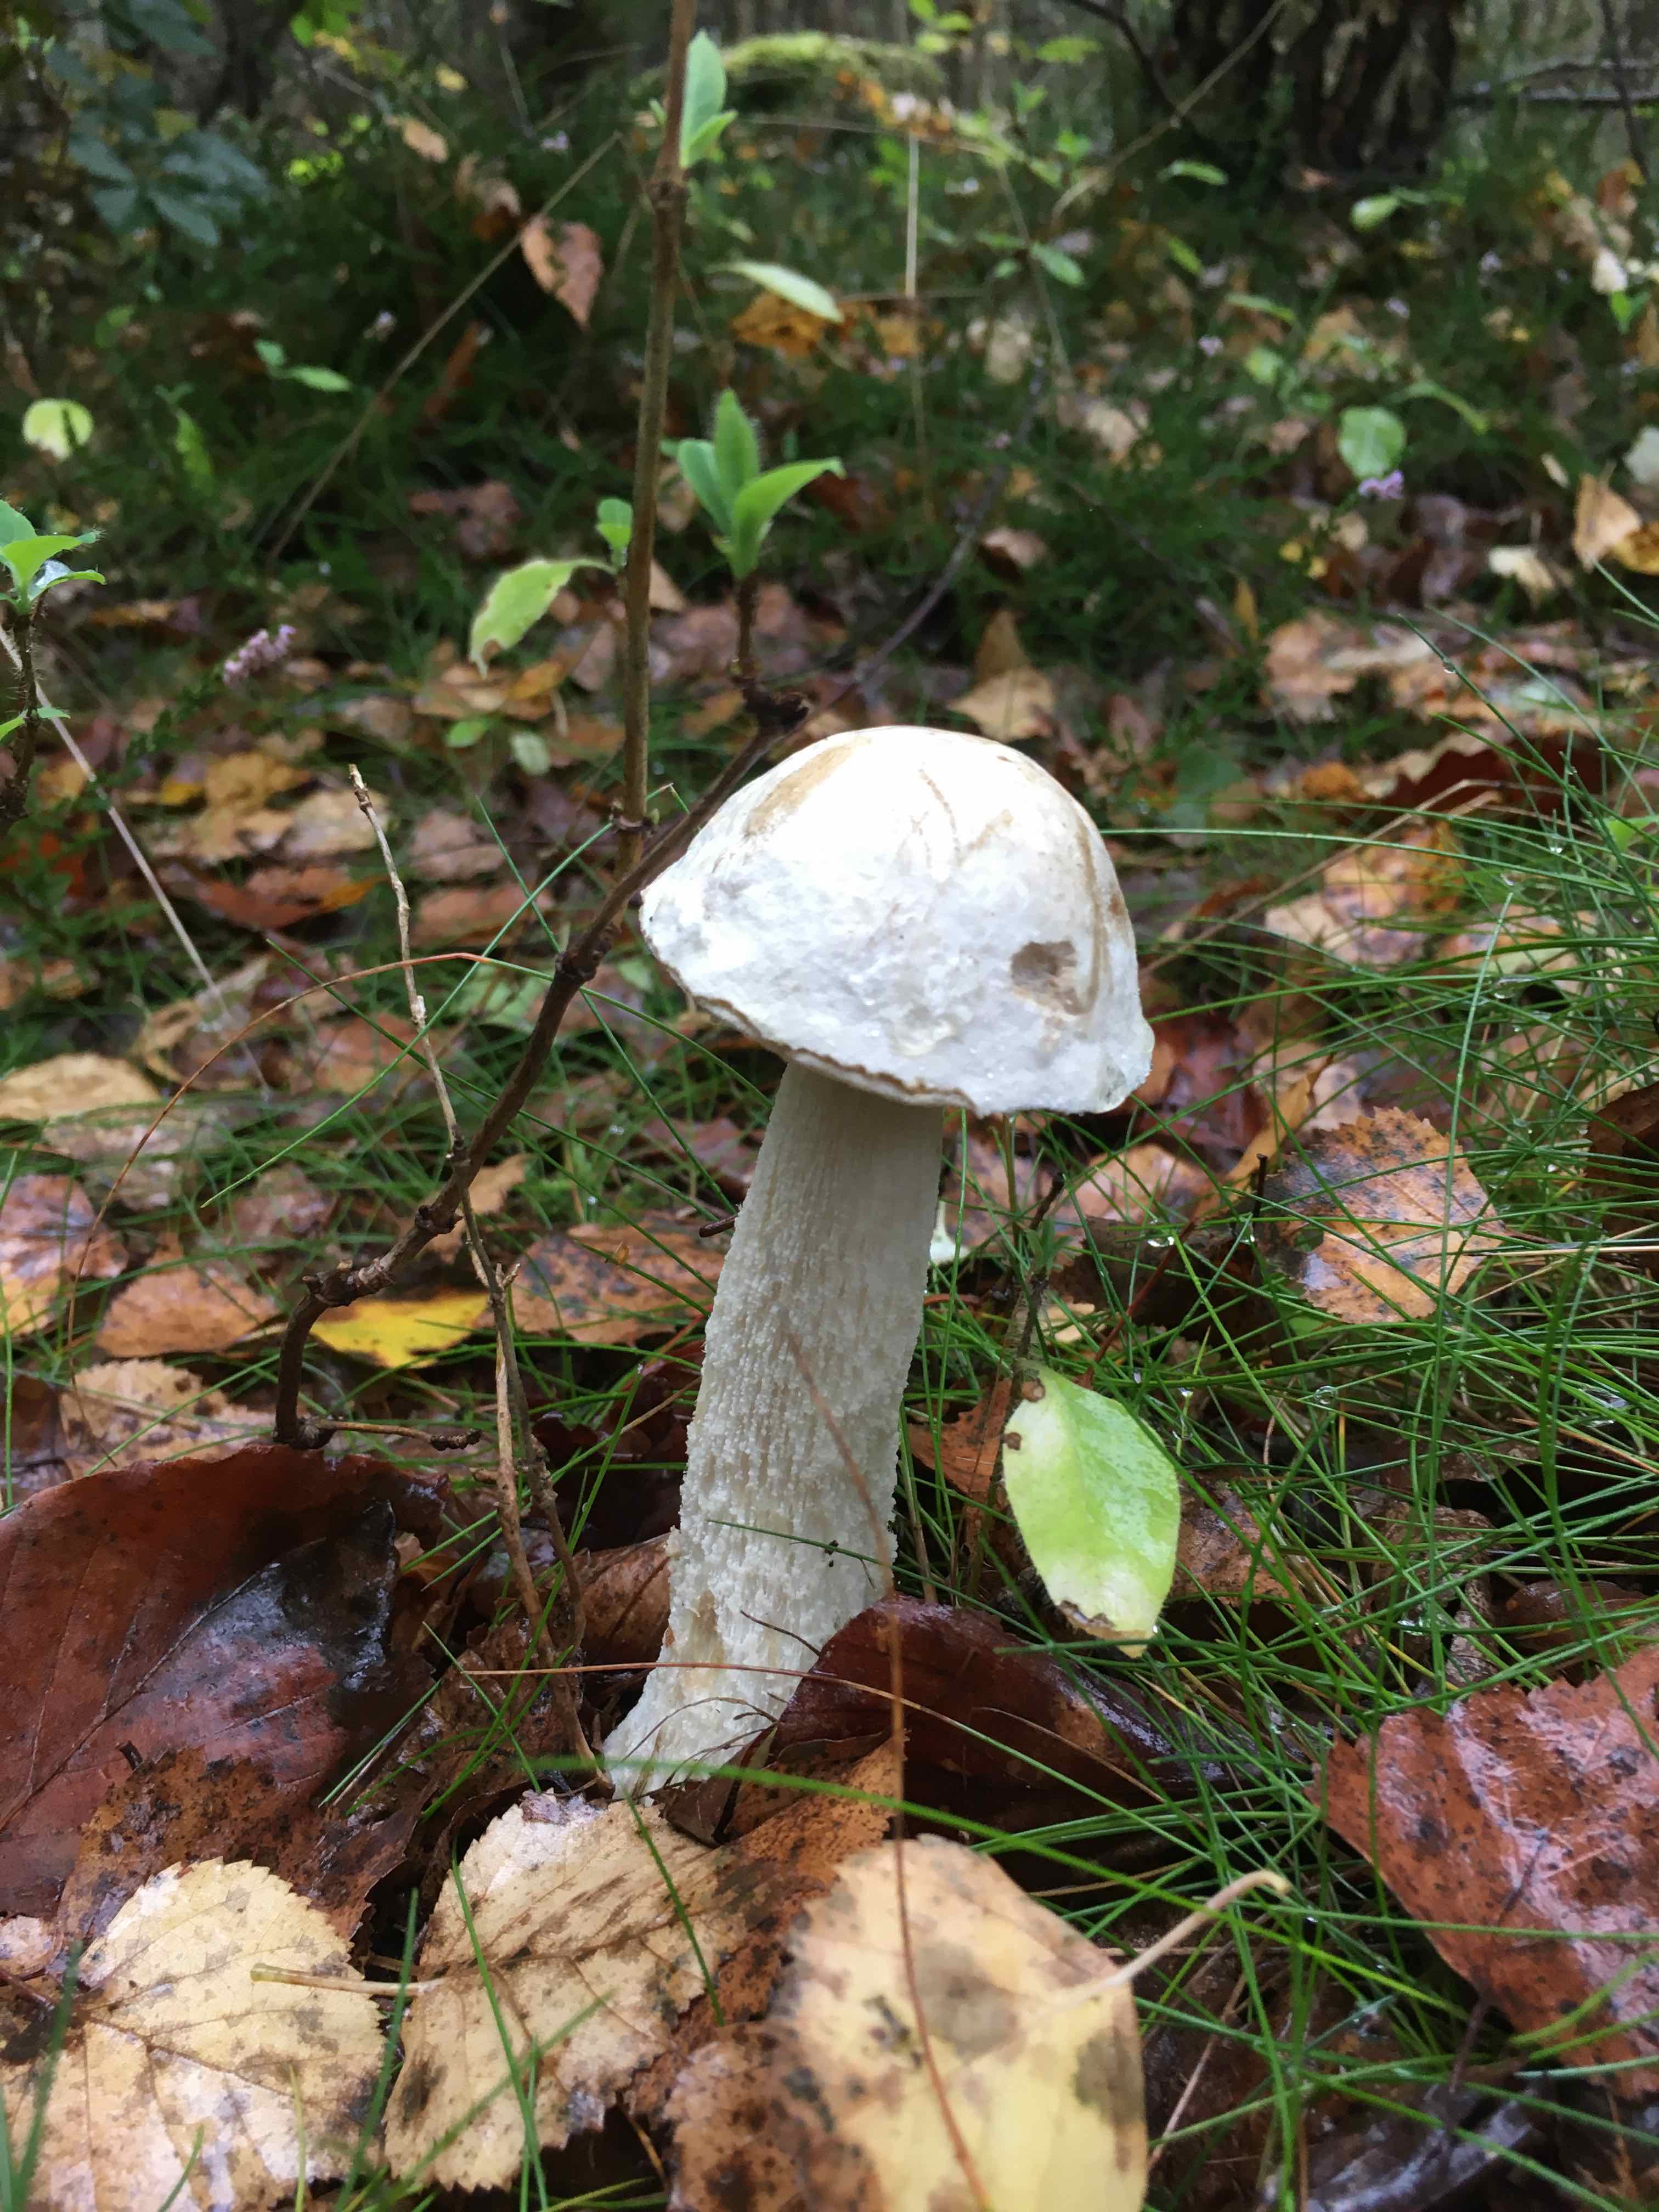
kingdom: Fungi
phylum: Basidiomycota
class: Agaricomycetes
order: Boletales
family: Boletaceae
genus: Leccinum
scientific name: Leccinum scabrum
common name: hvid skælrørhat
